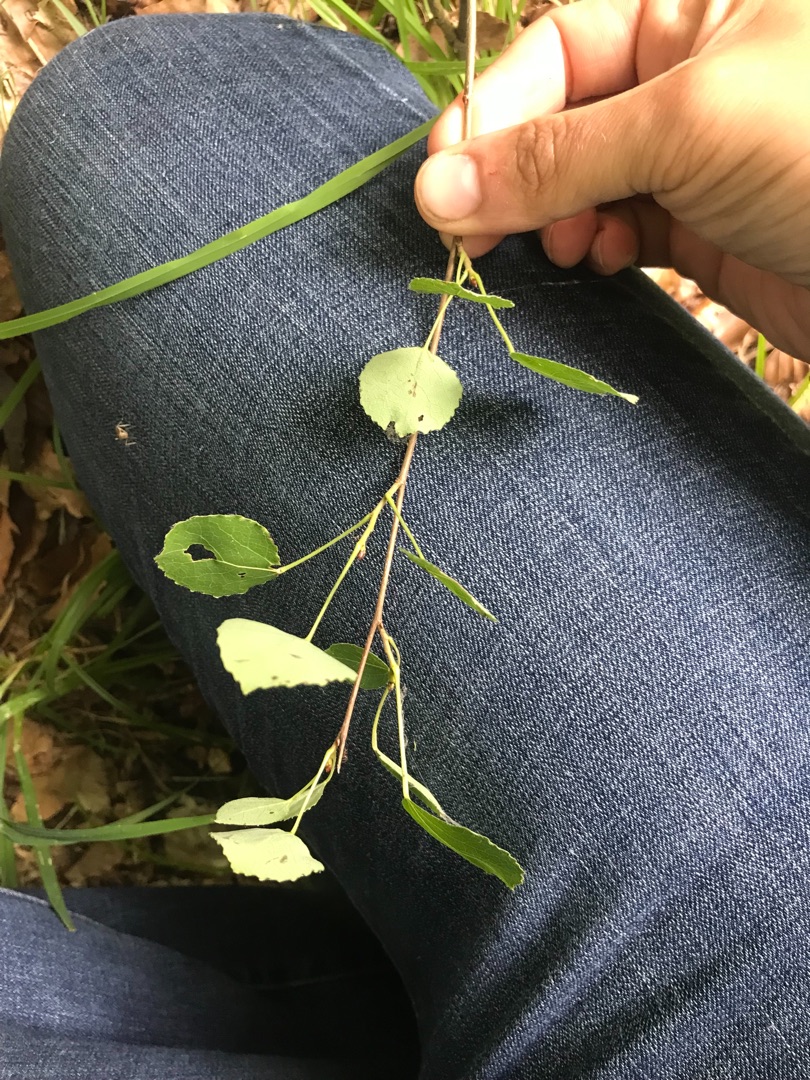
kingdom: Plantae
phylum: Tracheophyta
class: Magnoliopsida
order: Malpighiales
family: Salicaceae
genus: Populus
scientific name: Populus tremula
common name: Bævreasp
